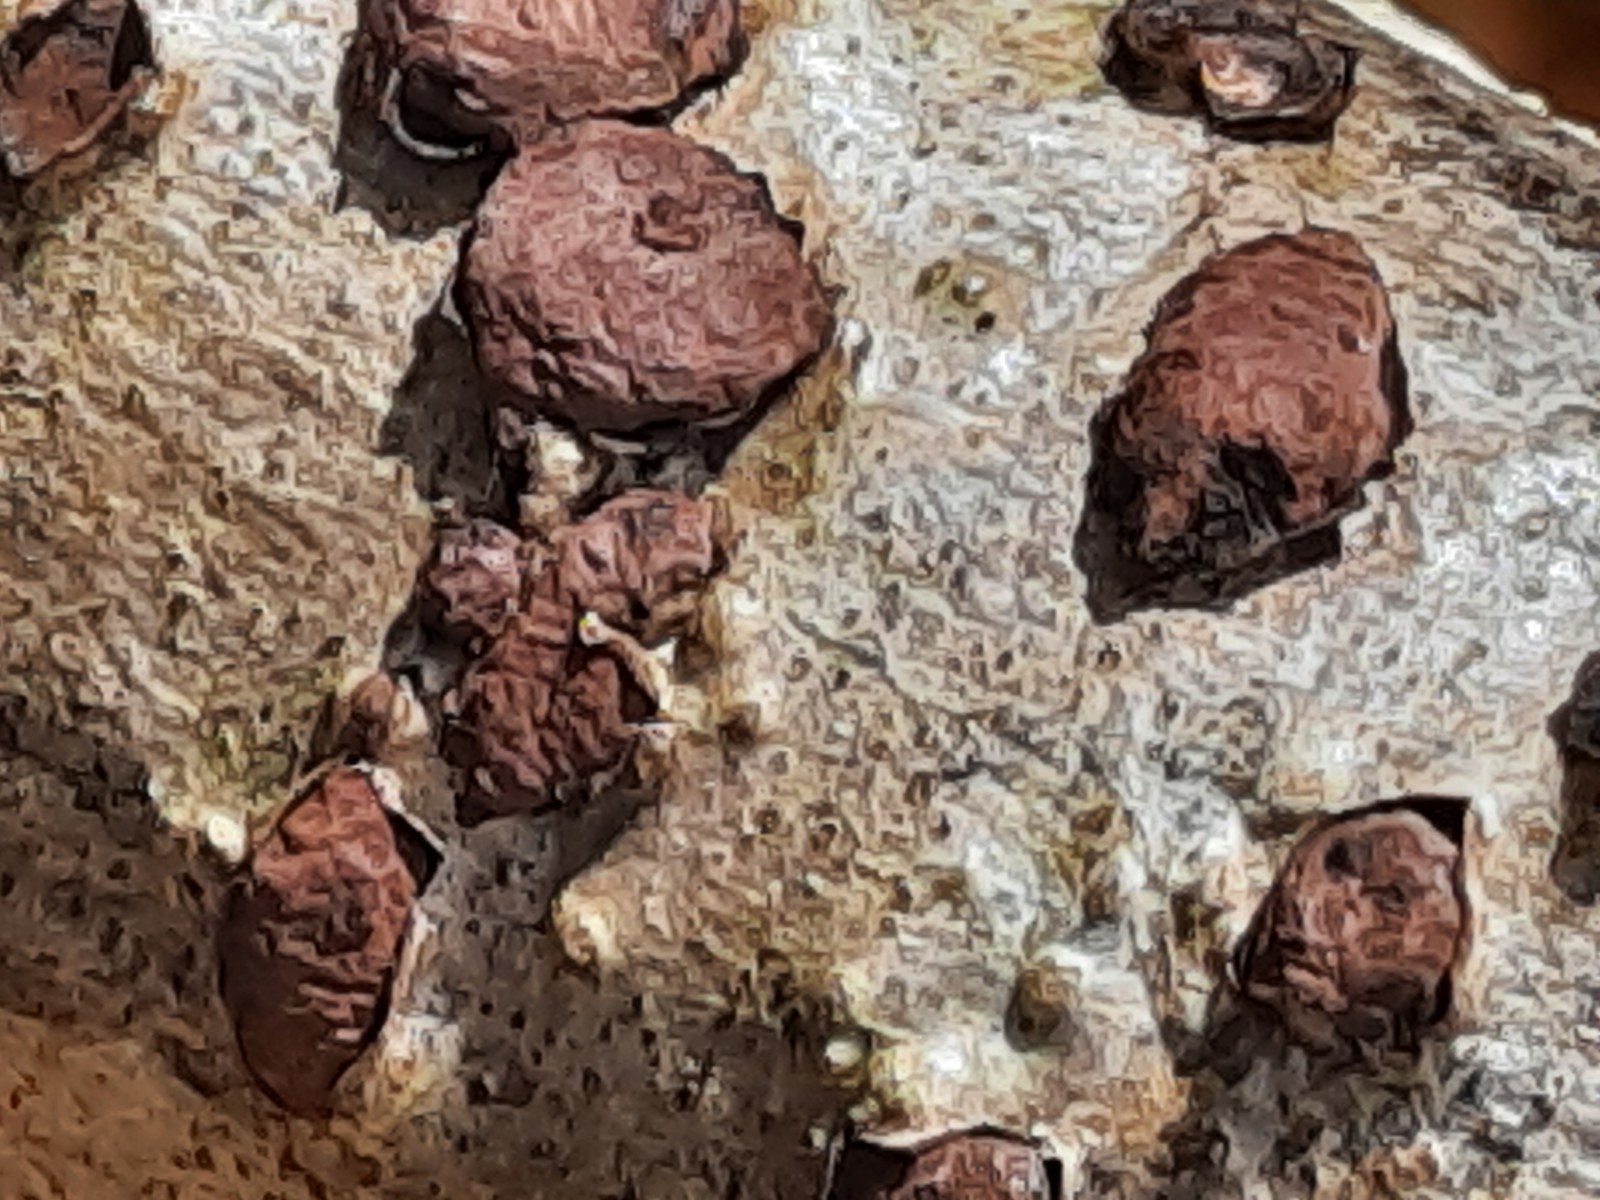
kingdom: Fungi
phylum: Ascomycota
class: Sordariomycetes
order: Xylariales
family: Hypoxylaceae
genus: Jackrogersella
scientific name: Jackrogersella multiformis
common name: foranderlig kulbær
